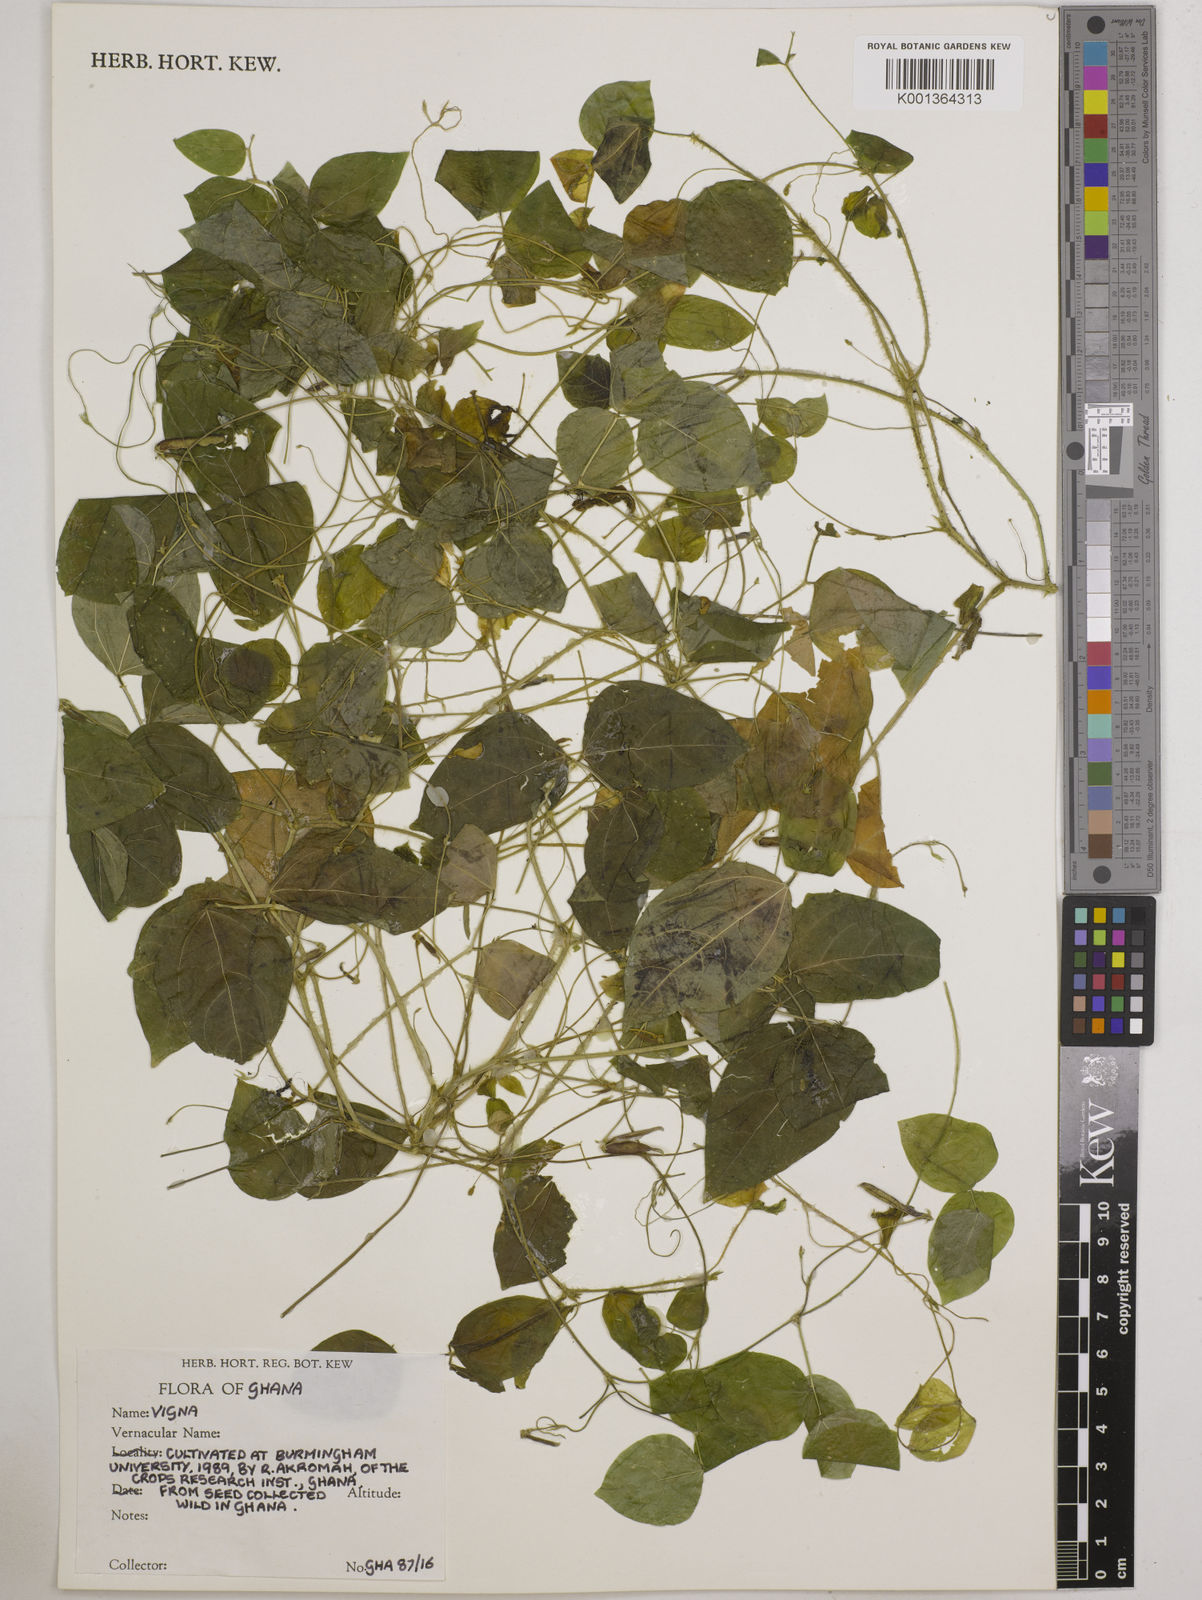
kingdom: Plantae
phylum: Tracheophyta
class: Magnoliopsida
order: Fabales
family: Fabaceae
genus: Vigna
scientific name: Vigna
